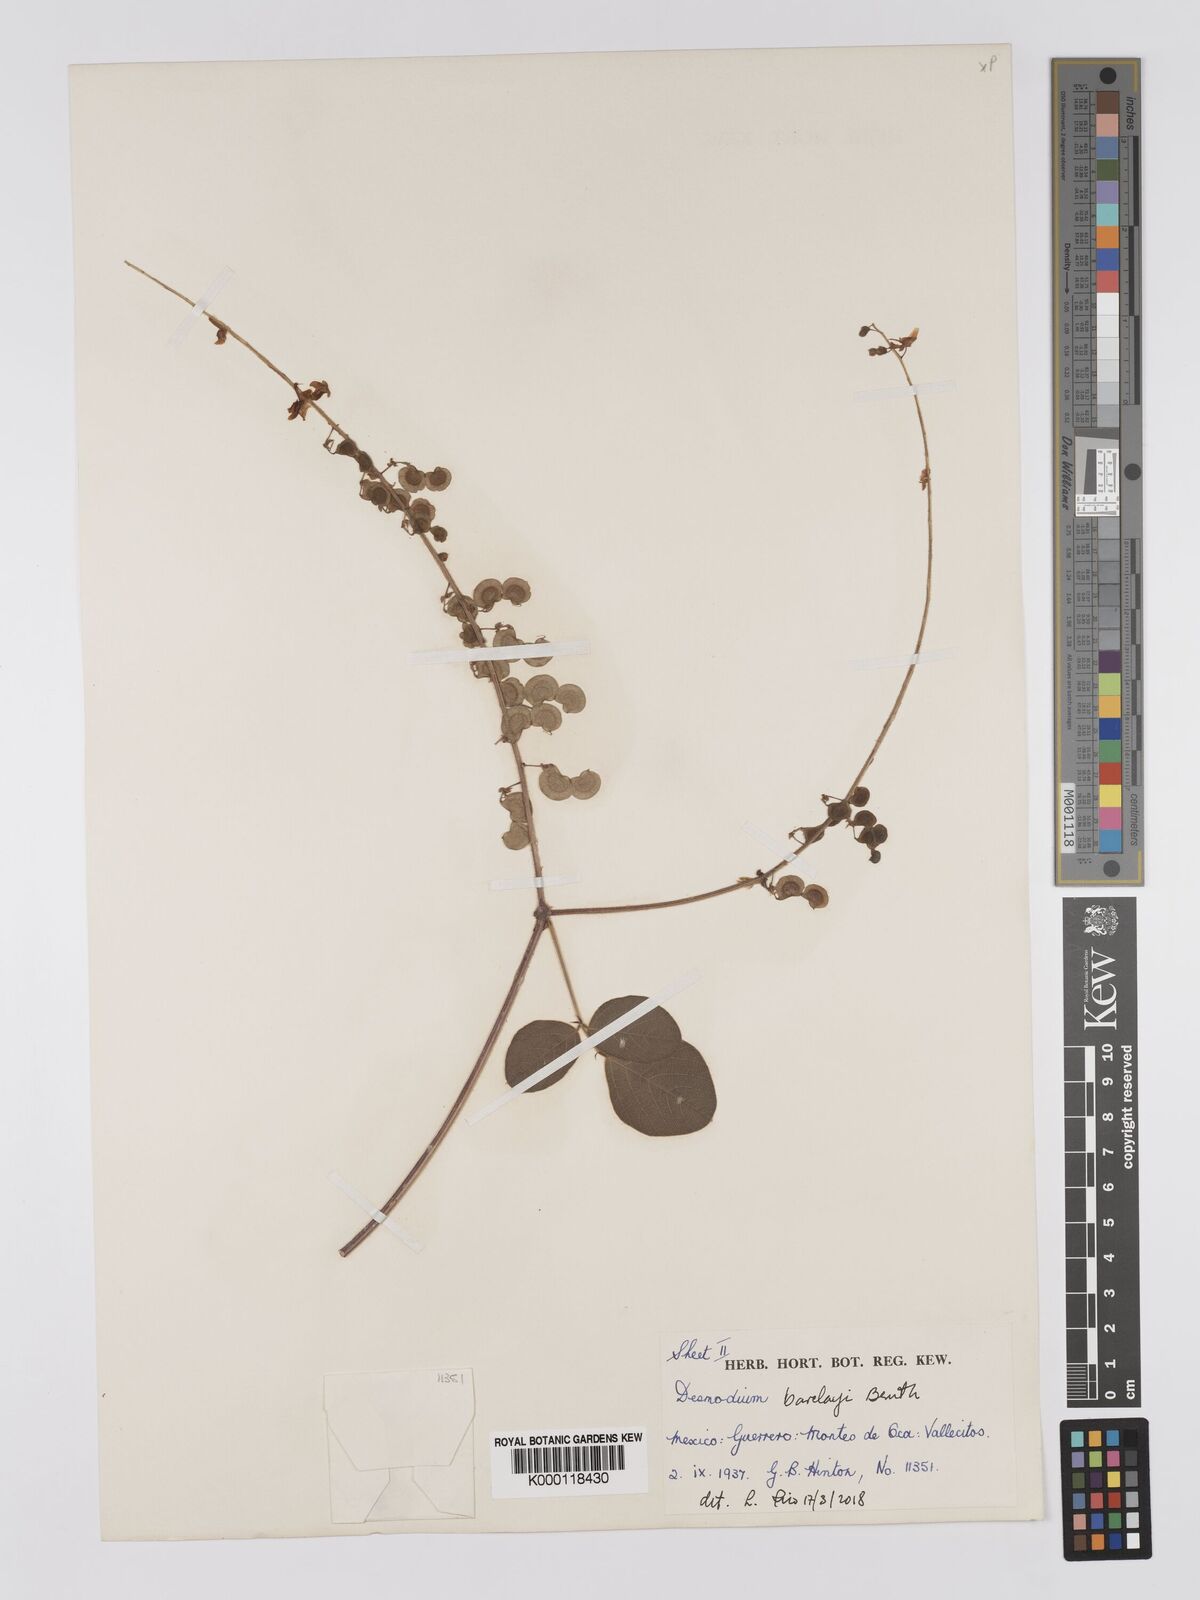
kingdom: Plantae
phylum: Tracheophyta
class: Magnoliopsida
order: Fabales
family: Fabaceae
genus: Desmodium
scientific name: Desmodium infractum
